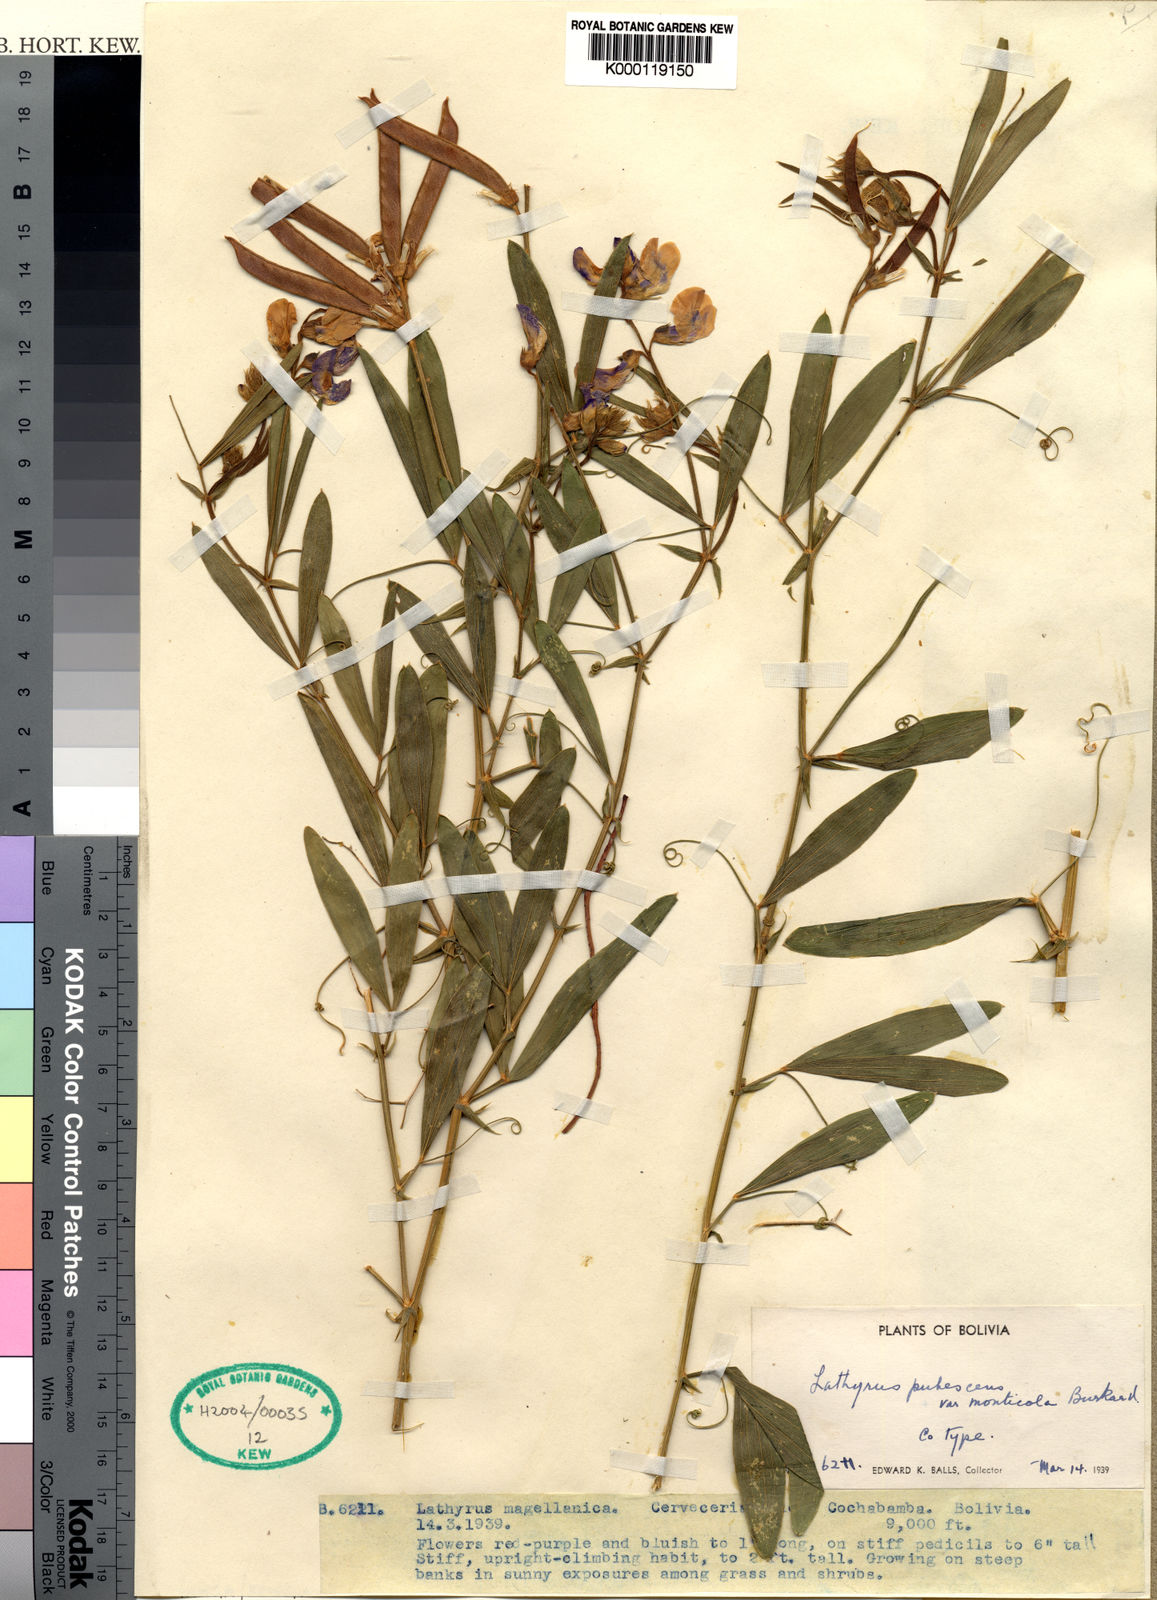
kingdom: Plantae
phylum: Tracheophyta
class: Magnoliopsida
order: Fabales
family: Fabaceae
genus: Lathyrus
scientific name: Lathyrus magellanicus
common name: Lord anson's pea
